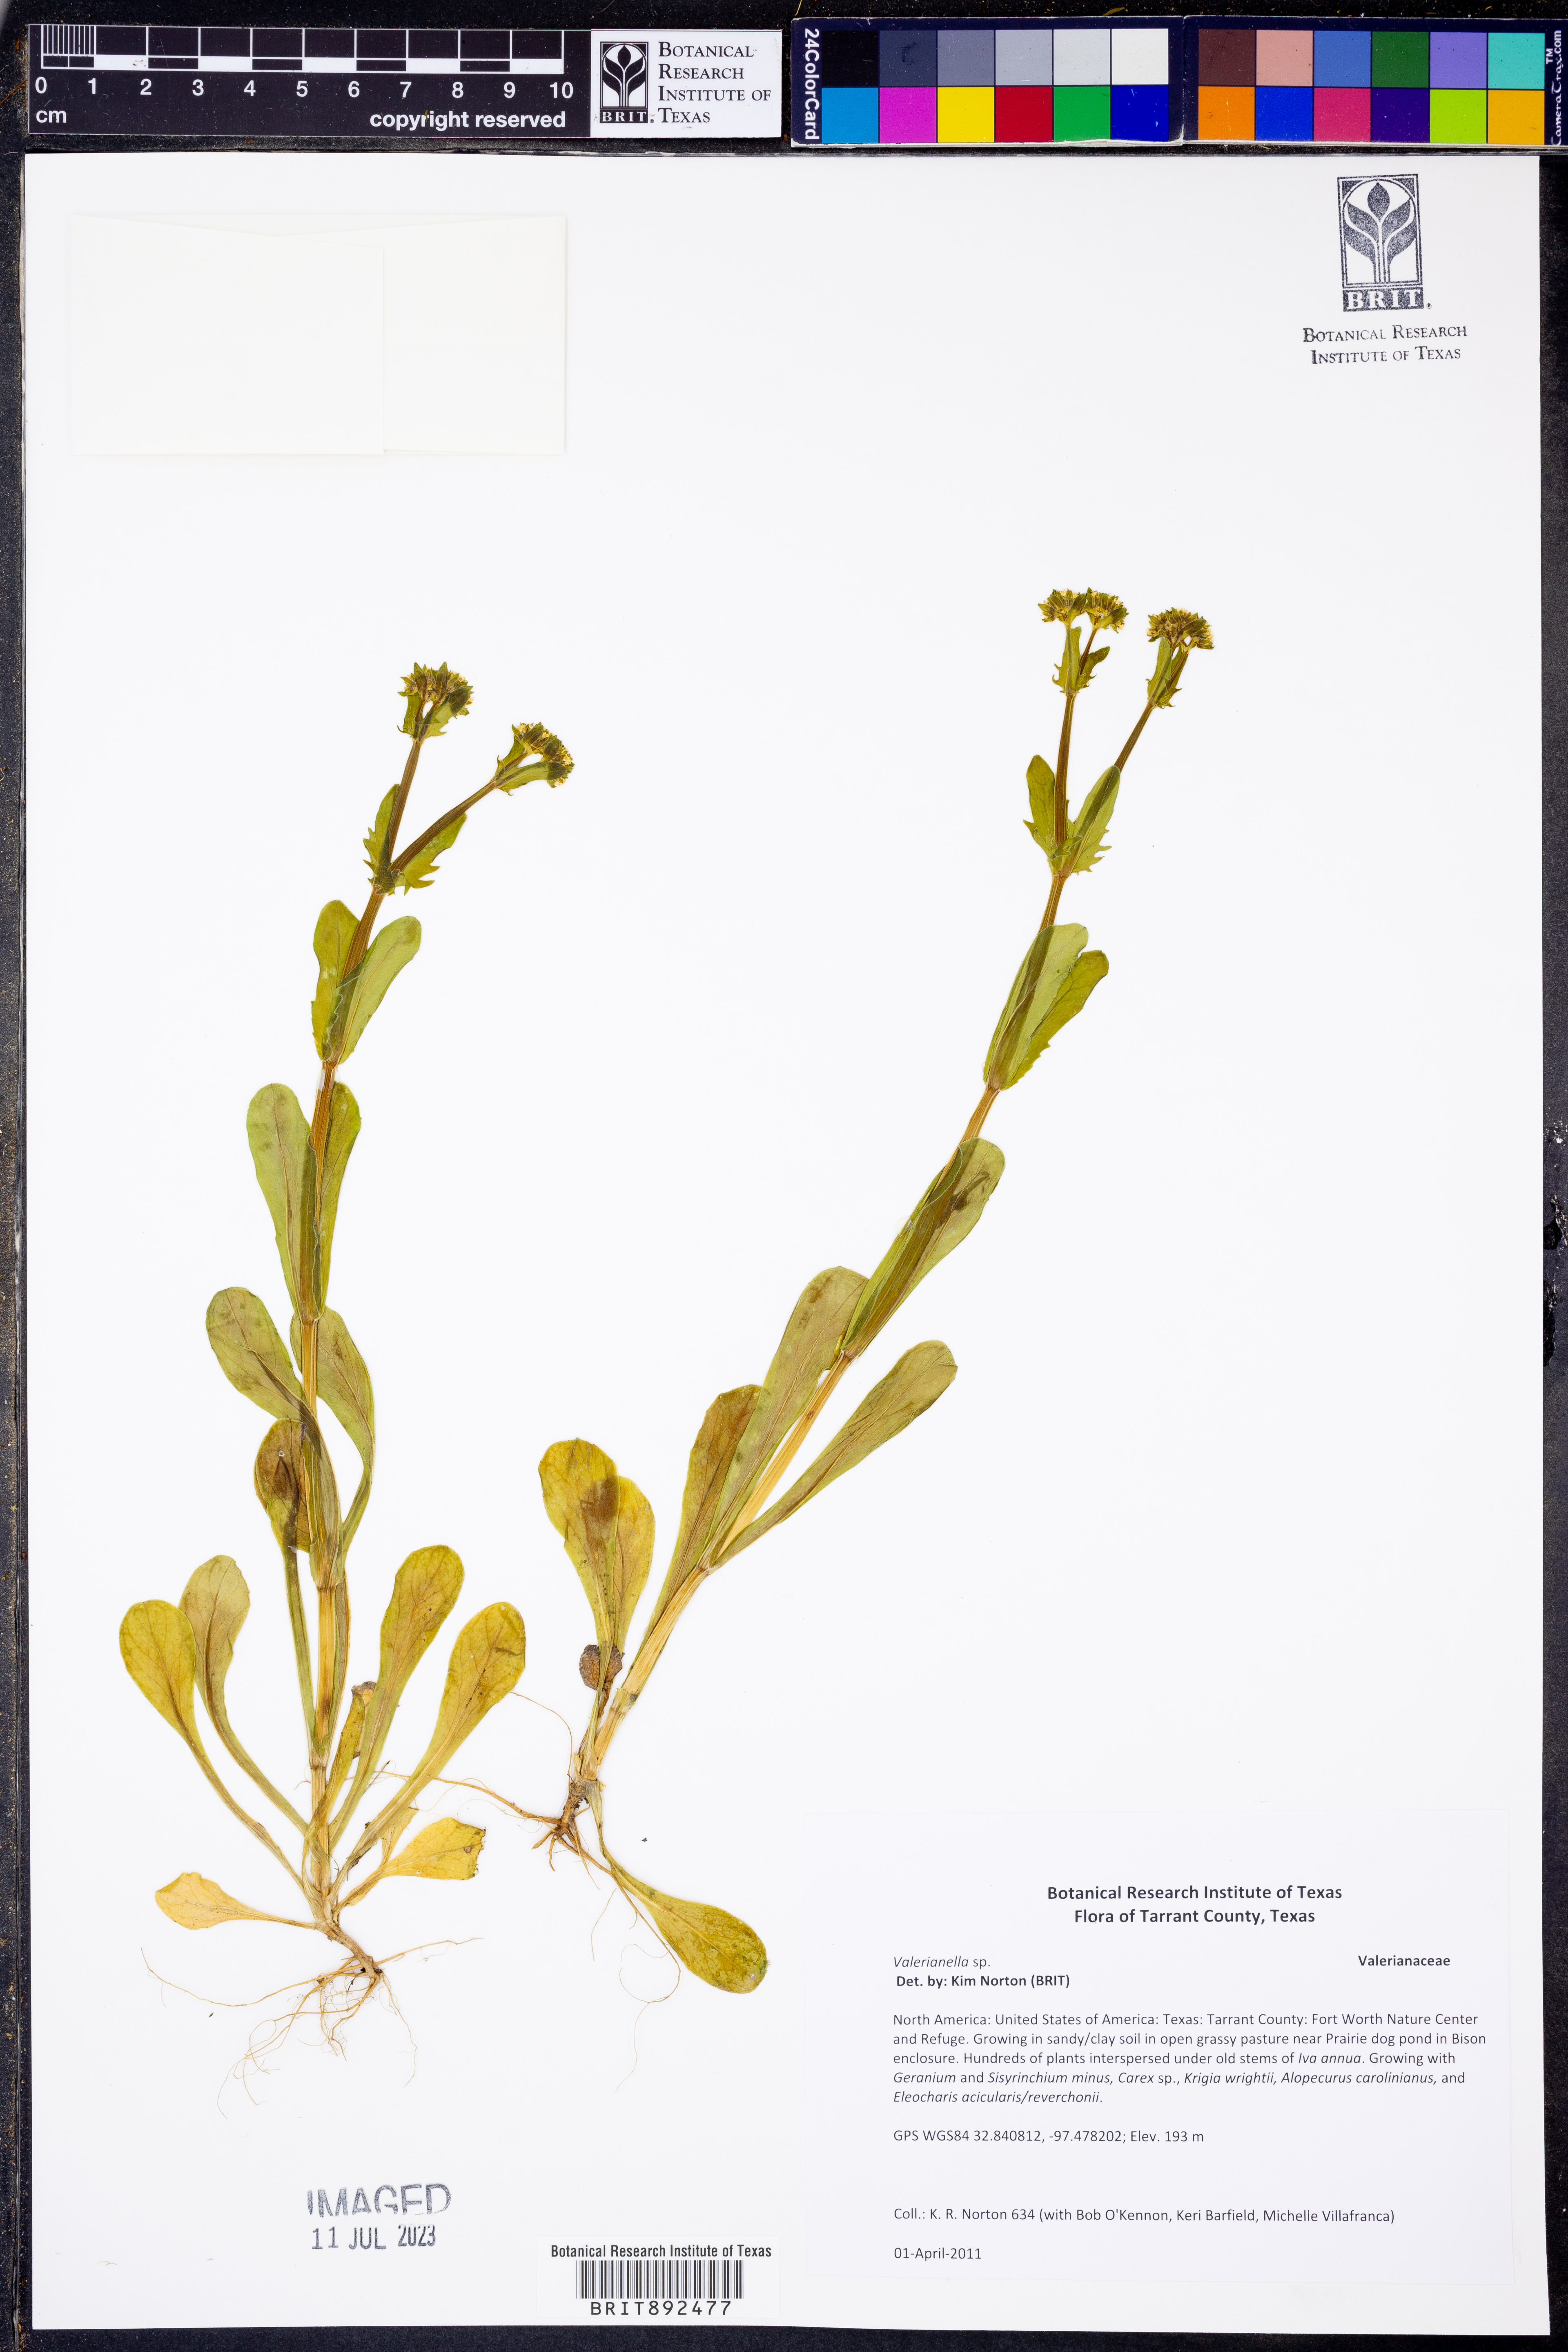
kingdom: Plantae
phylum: Tracheophyta
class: Magnoliopsida
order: Dipsacales
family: Caprifoliaceae
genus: Valerianella
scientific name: Valerianella
